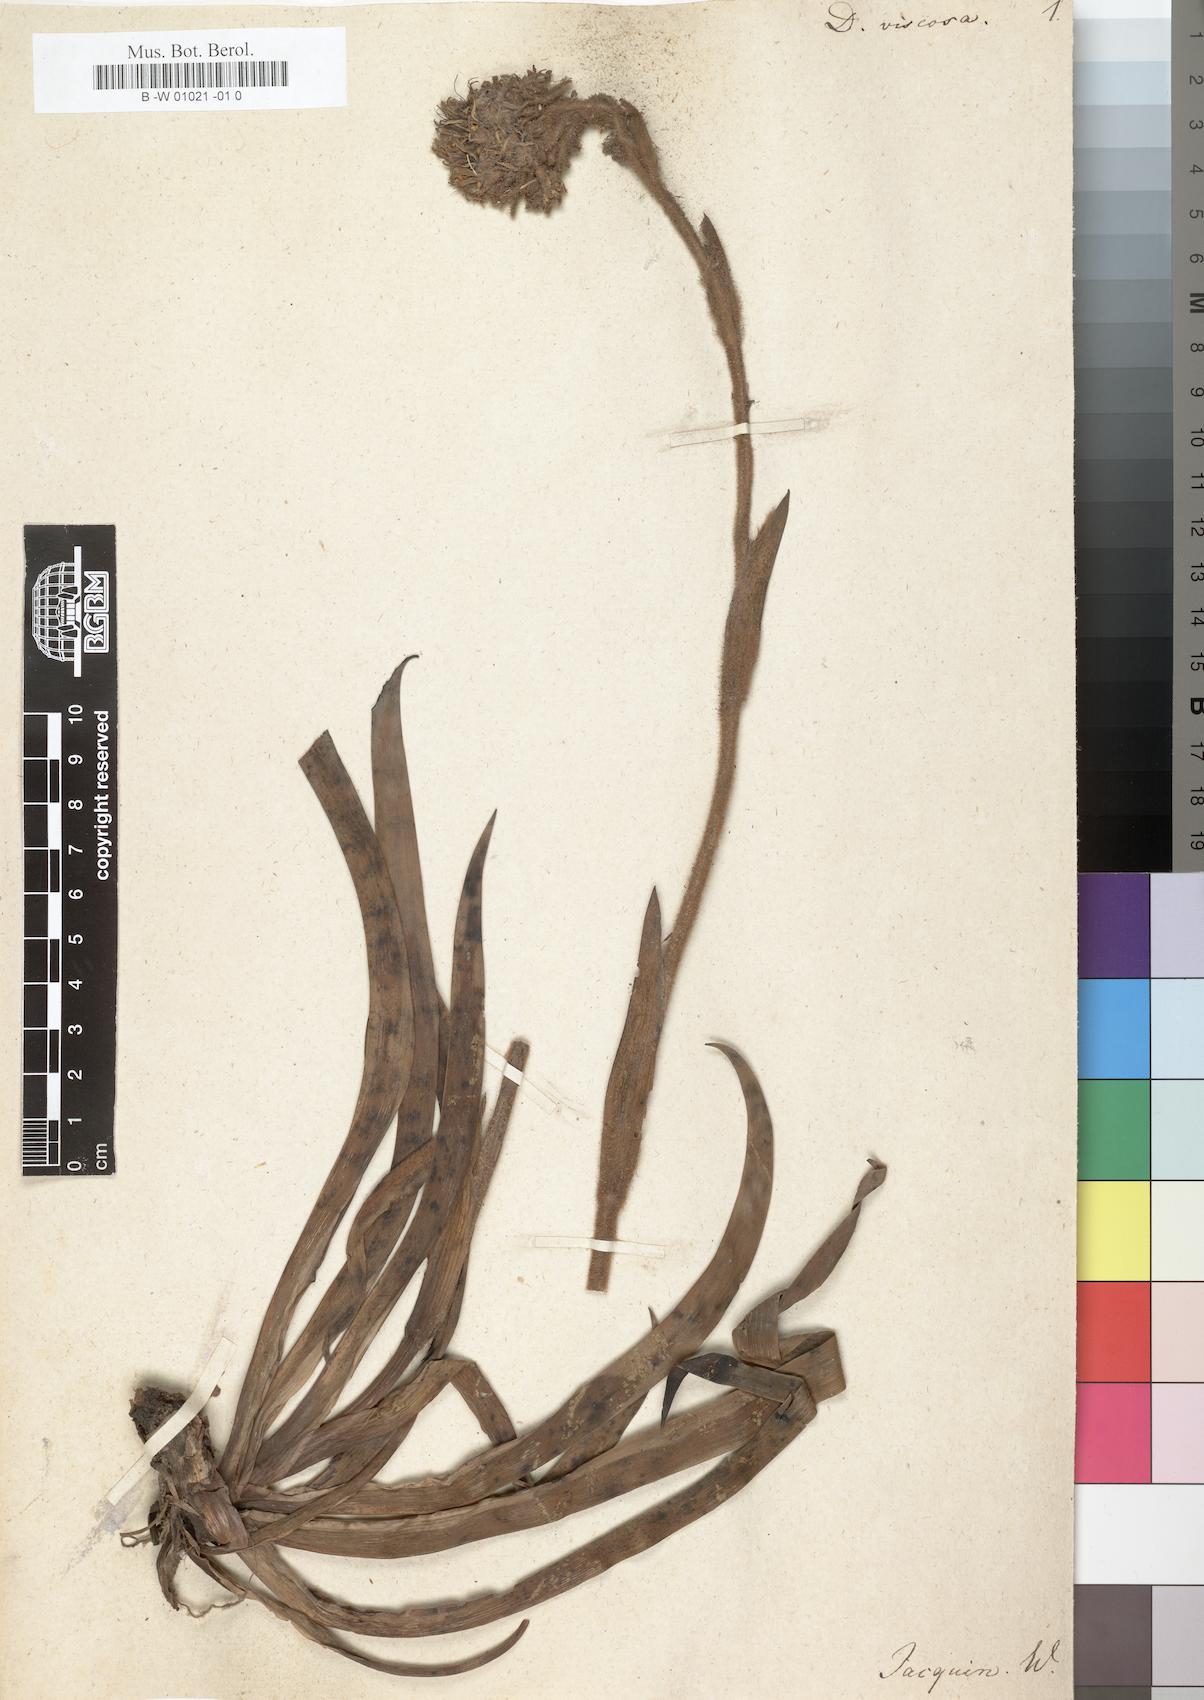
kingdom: Plantae
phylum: Tracheophyta
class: Liliopsida
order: Commelinales
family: Haemodoraceae
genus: Dilatris
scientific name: Dilatris viscosa
